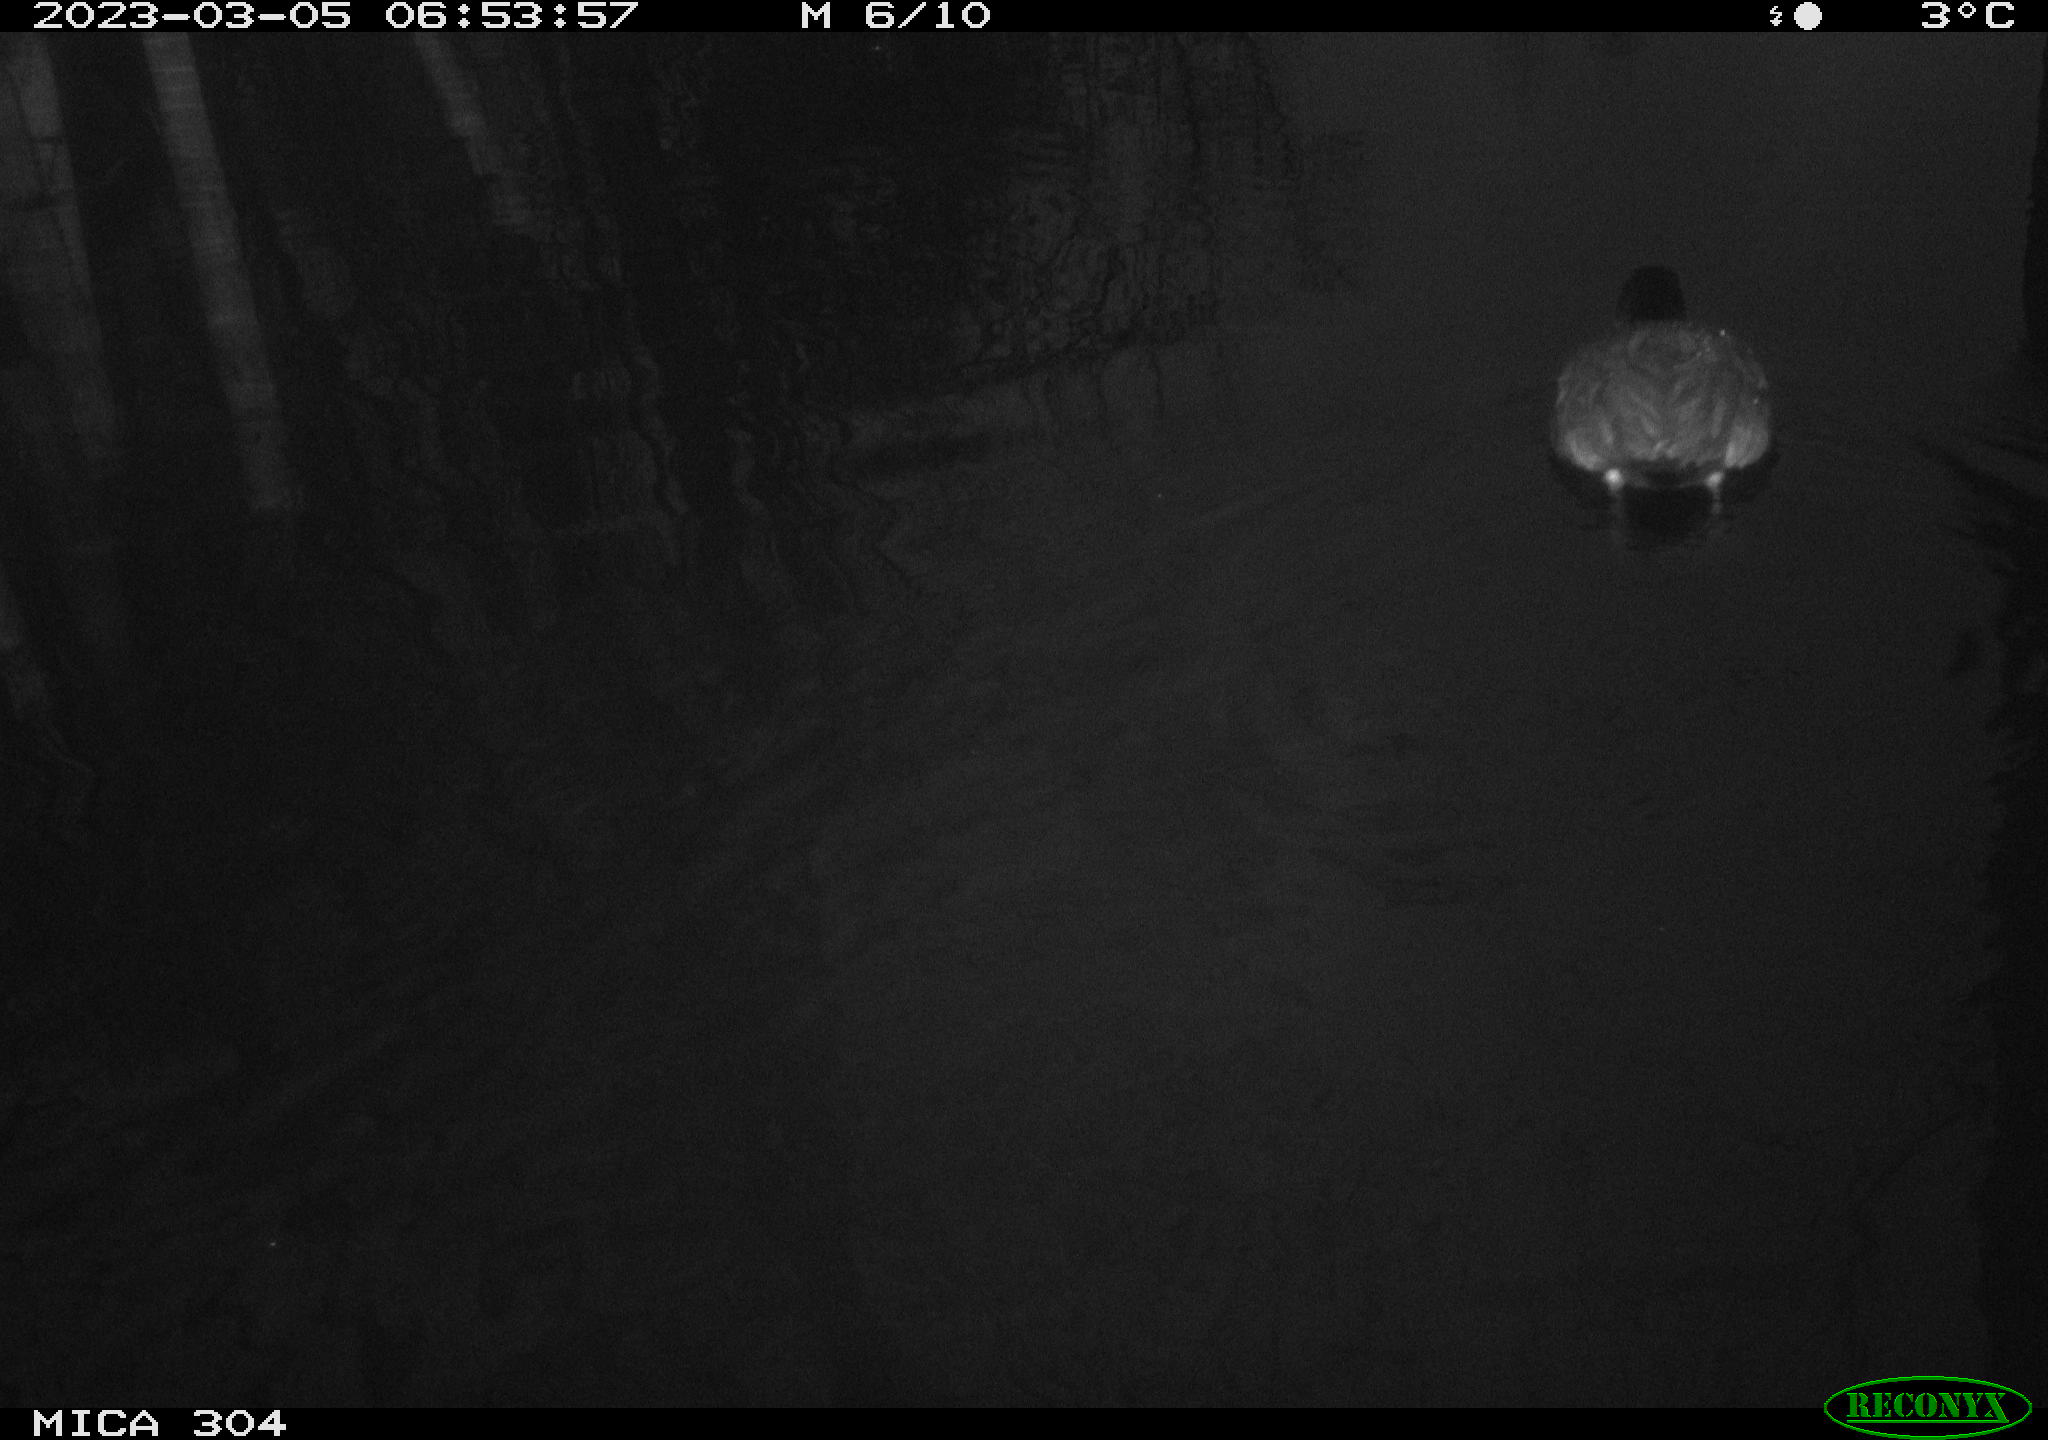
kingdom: Animalia
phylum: Chordata
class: Aves
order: Anseriformes
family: Anatidae
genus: Anas
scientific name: Anas
